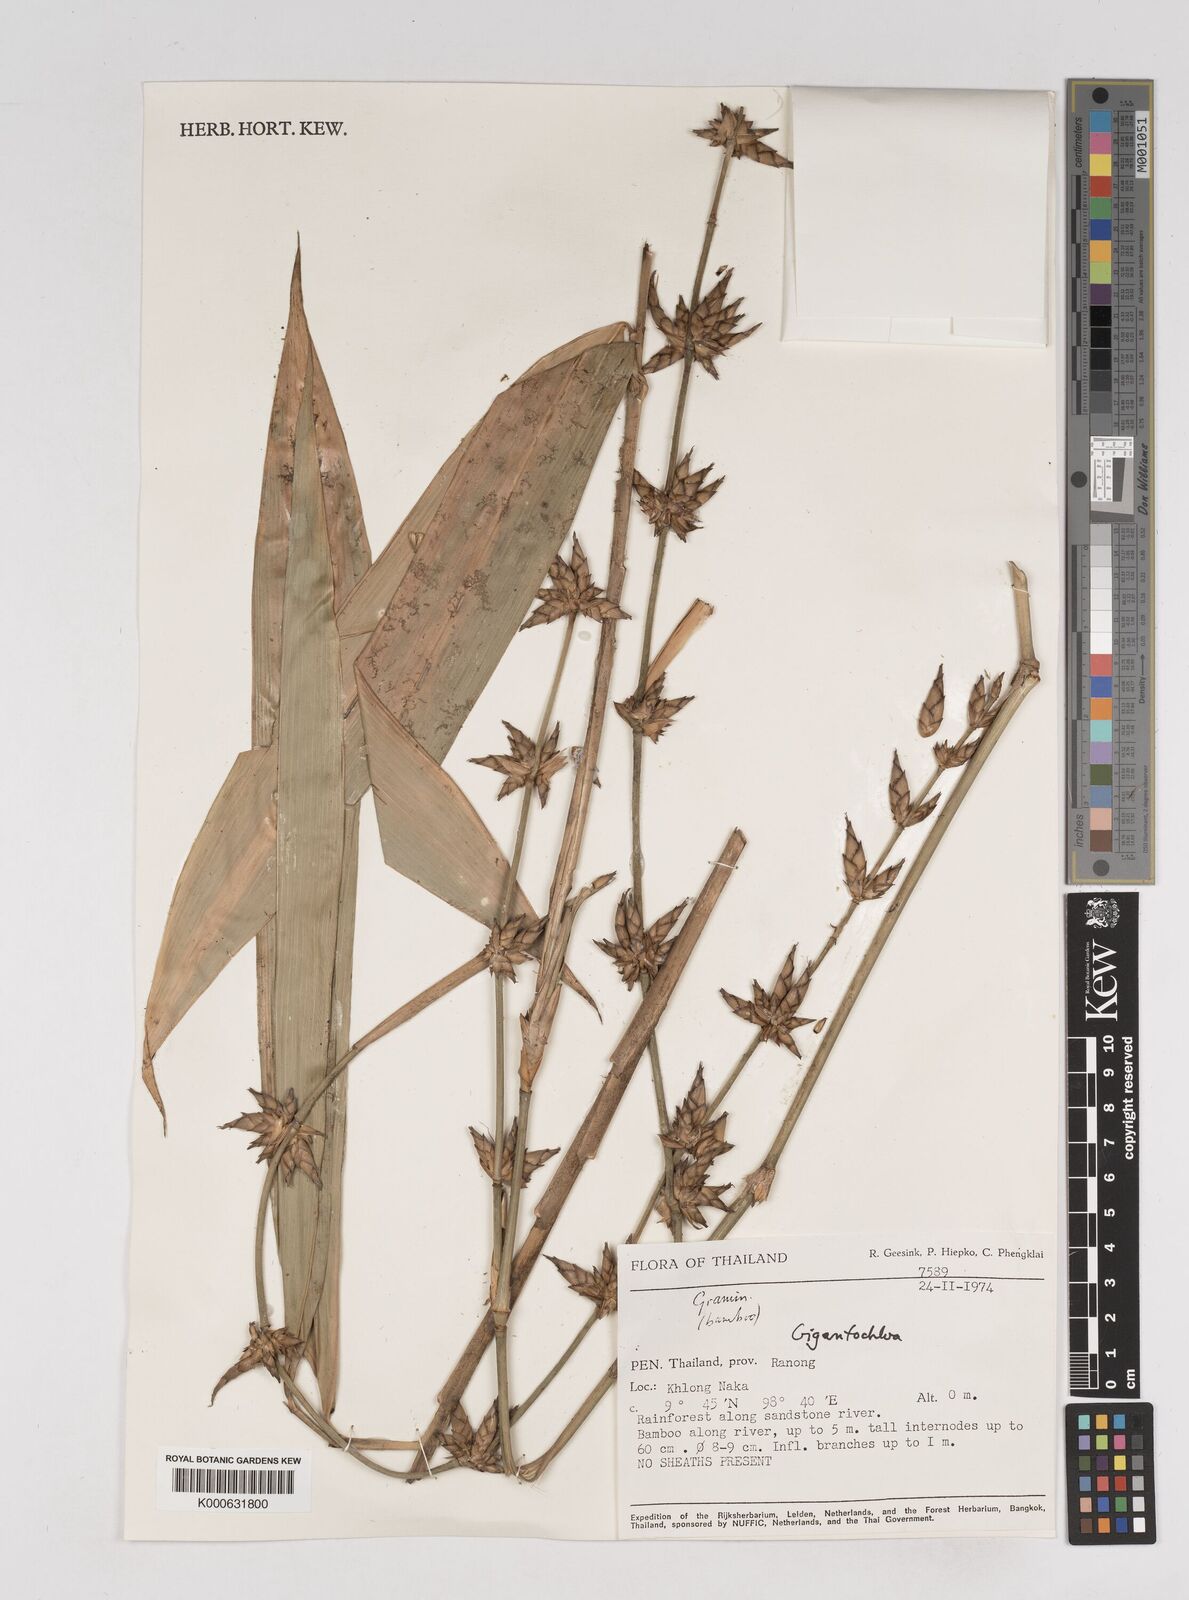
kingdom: Plantae
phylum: Tracheophyta
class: Liliopsida
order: Poales
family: Poaceae
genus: Gigantochloa
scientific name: Gigantochloa
